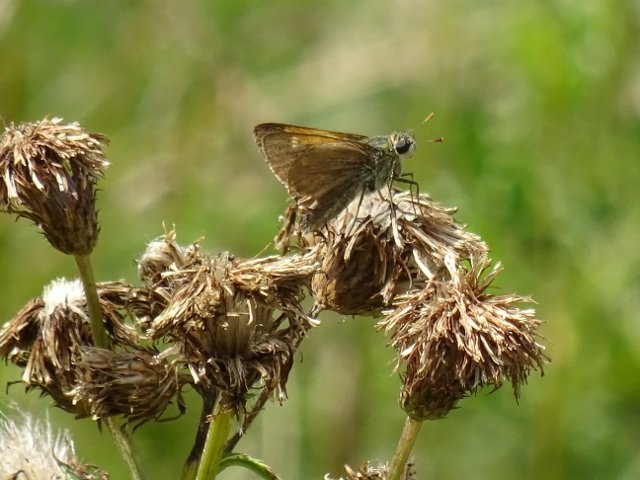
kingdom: Animalia
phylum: Arthropoda
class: Insecta
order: Lepidoptera
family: Hesperiidae
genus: Polites
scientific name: Polites themistocles
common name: Tawny-edged Skipper
